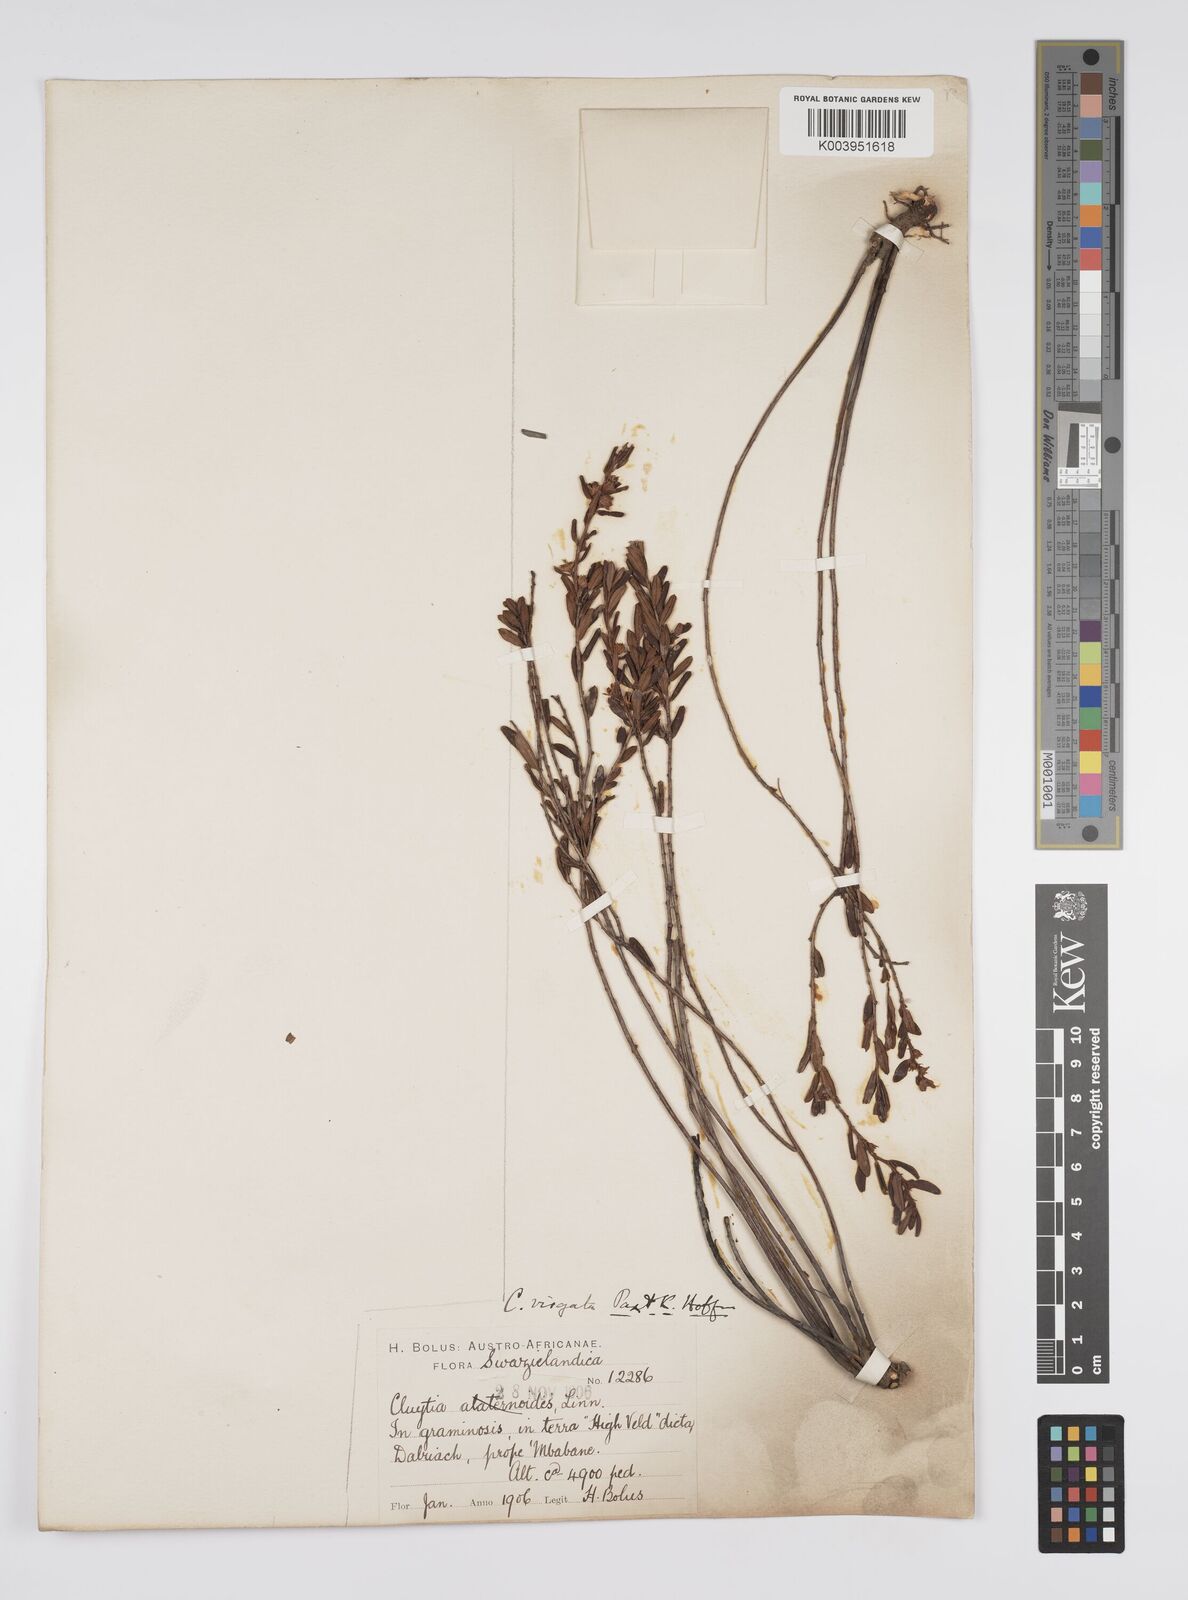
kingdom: Plantae
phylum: Tracheophyta
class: Magnoliopsida
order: Malpighiales
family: Peraceae
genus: Clutia
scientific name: Clutia virgata
